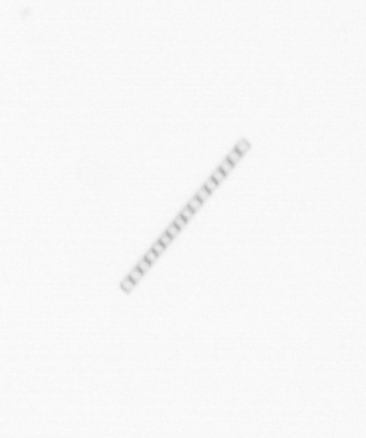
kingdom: Chromista
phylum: Ochrophyta
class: Bacillariophyceae
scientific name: Bacillariophyceae
